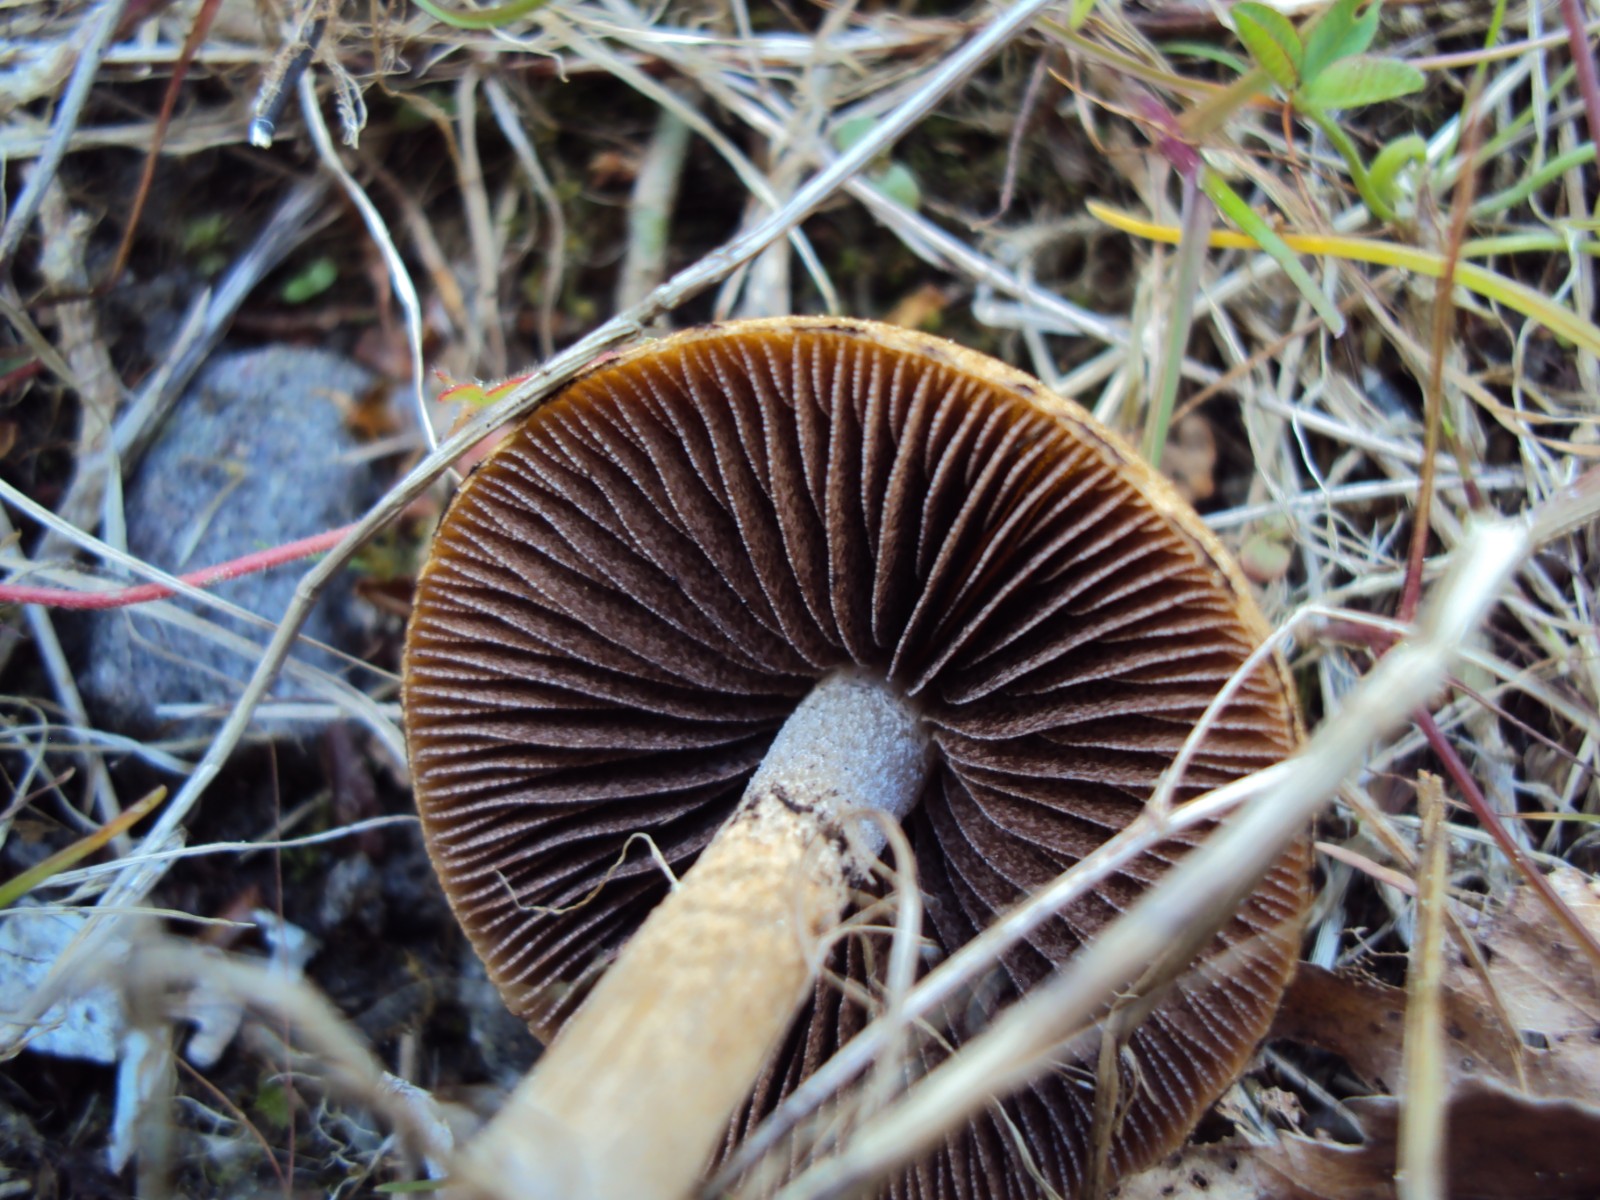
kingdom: Fungi
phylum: Basidiomycota
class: Agaricomycetes
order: Agaricales
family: Psathyrellaceae
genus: Lacrymaria
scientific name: Lacrymaria lacrymabunda
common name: grædende mørkhat
